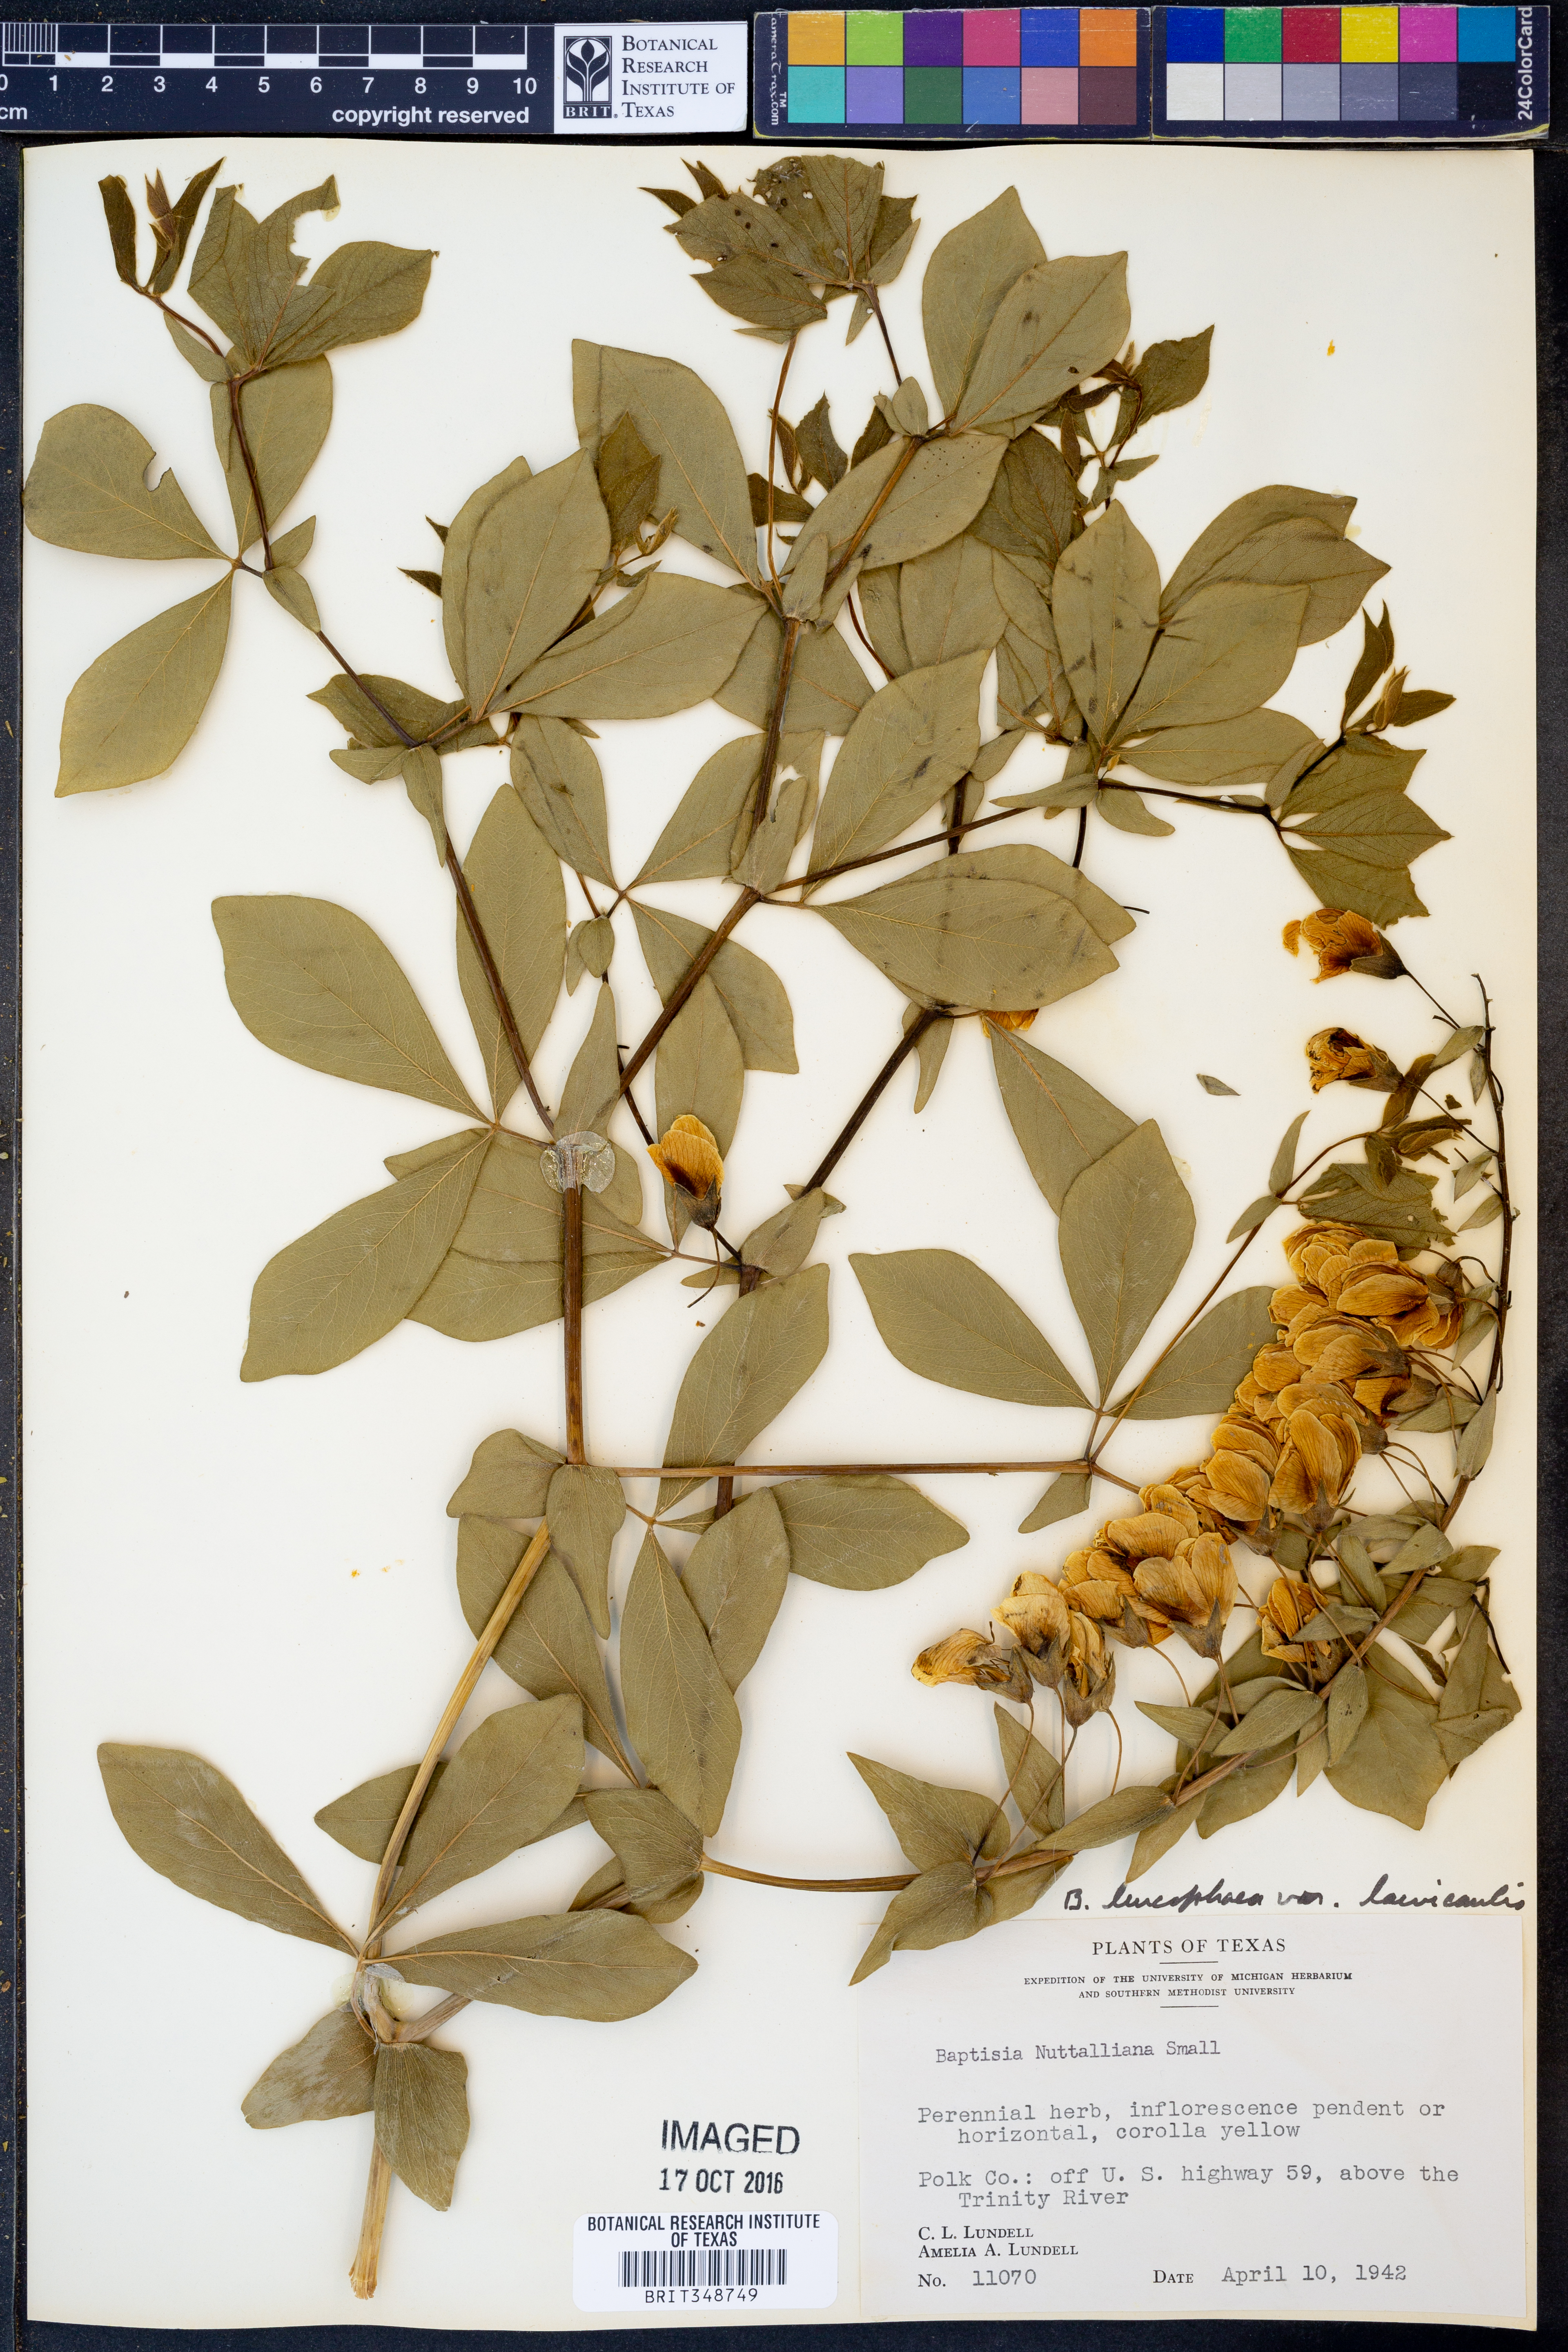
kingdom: Plantae
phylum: Tracheophyta
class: Magnoliopsida
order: Fabales
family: Fabaceae
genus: Baptisia
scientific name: Baptisia bracteata
